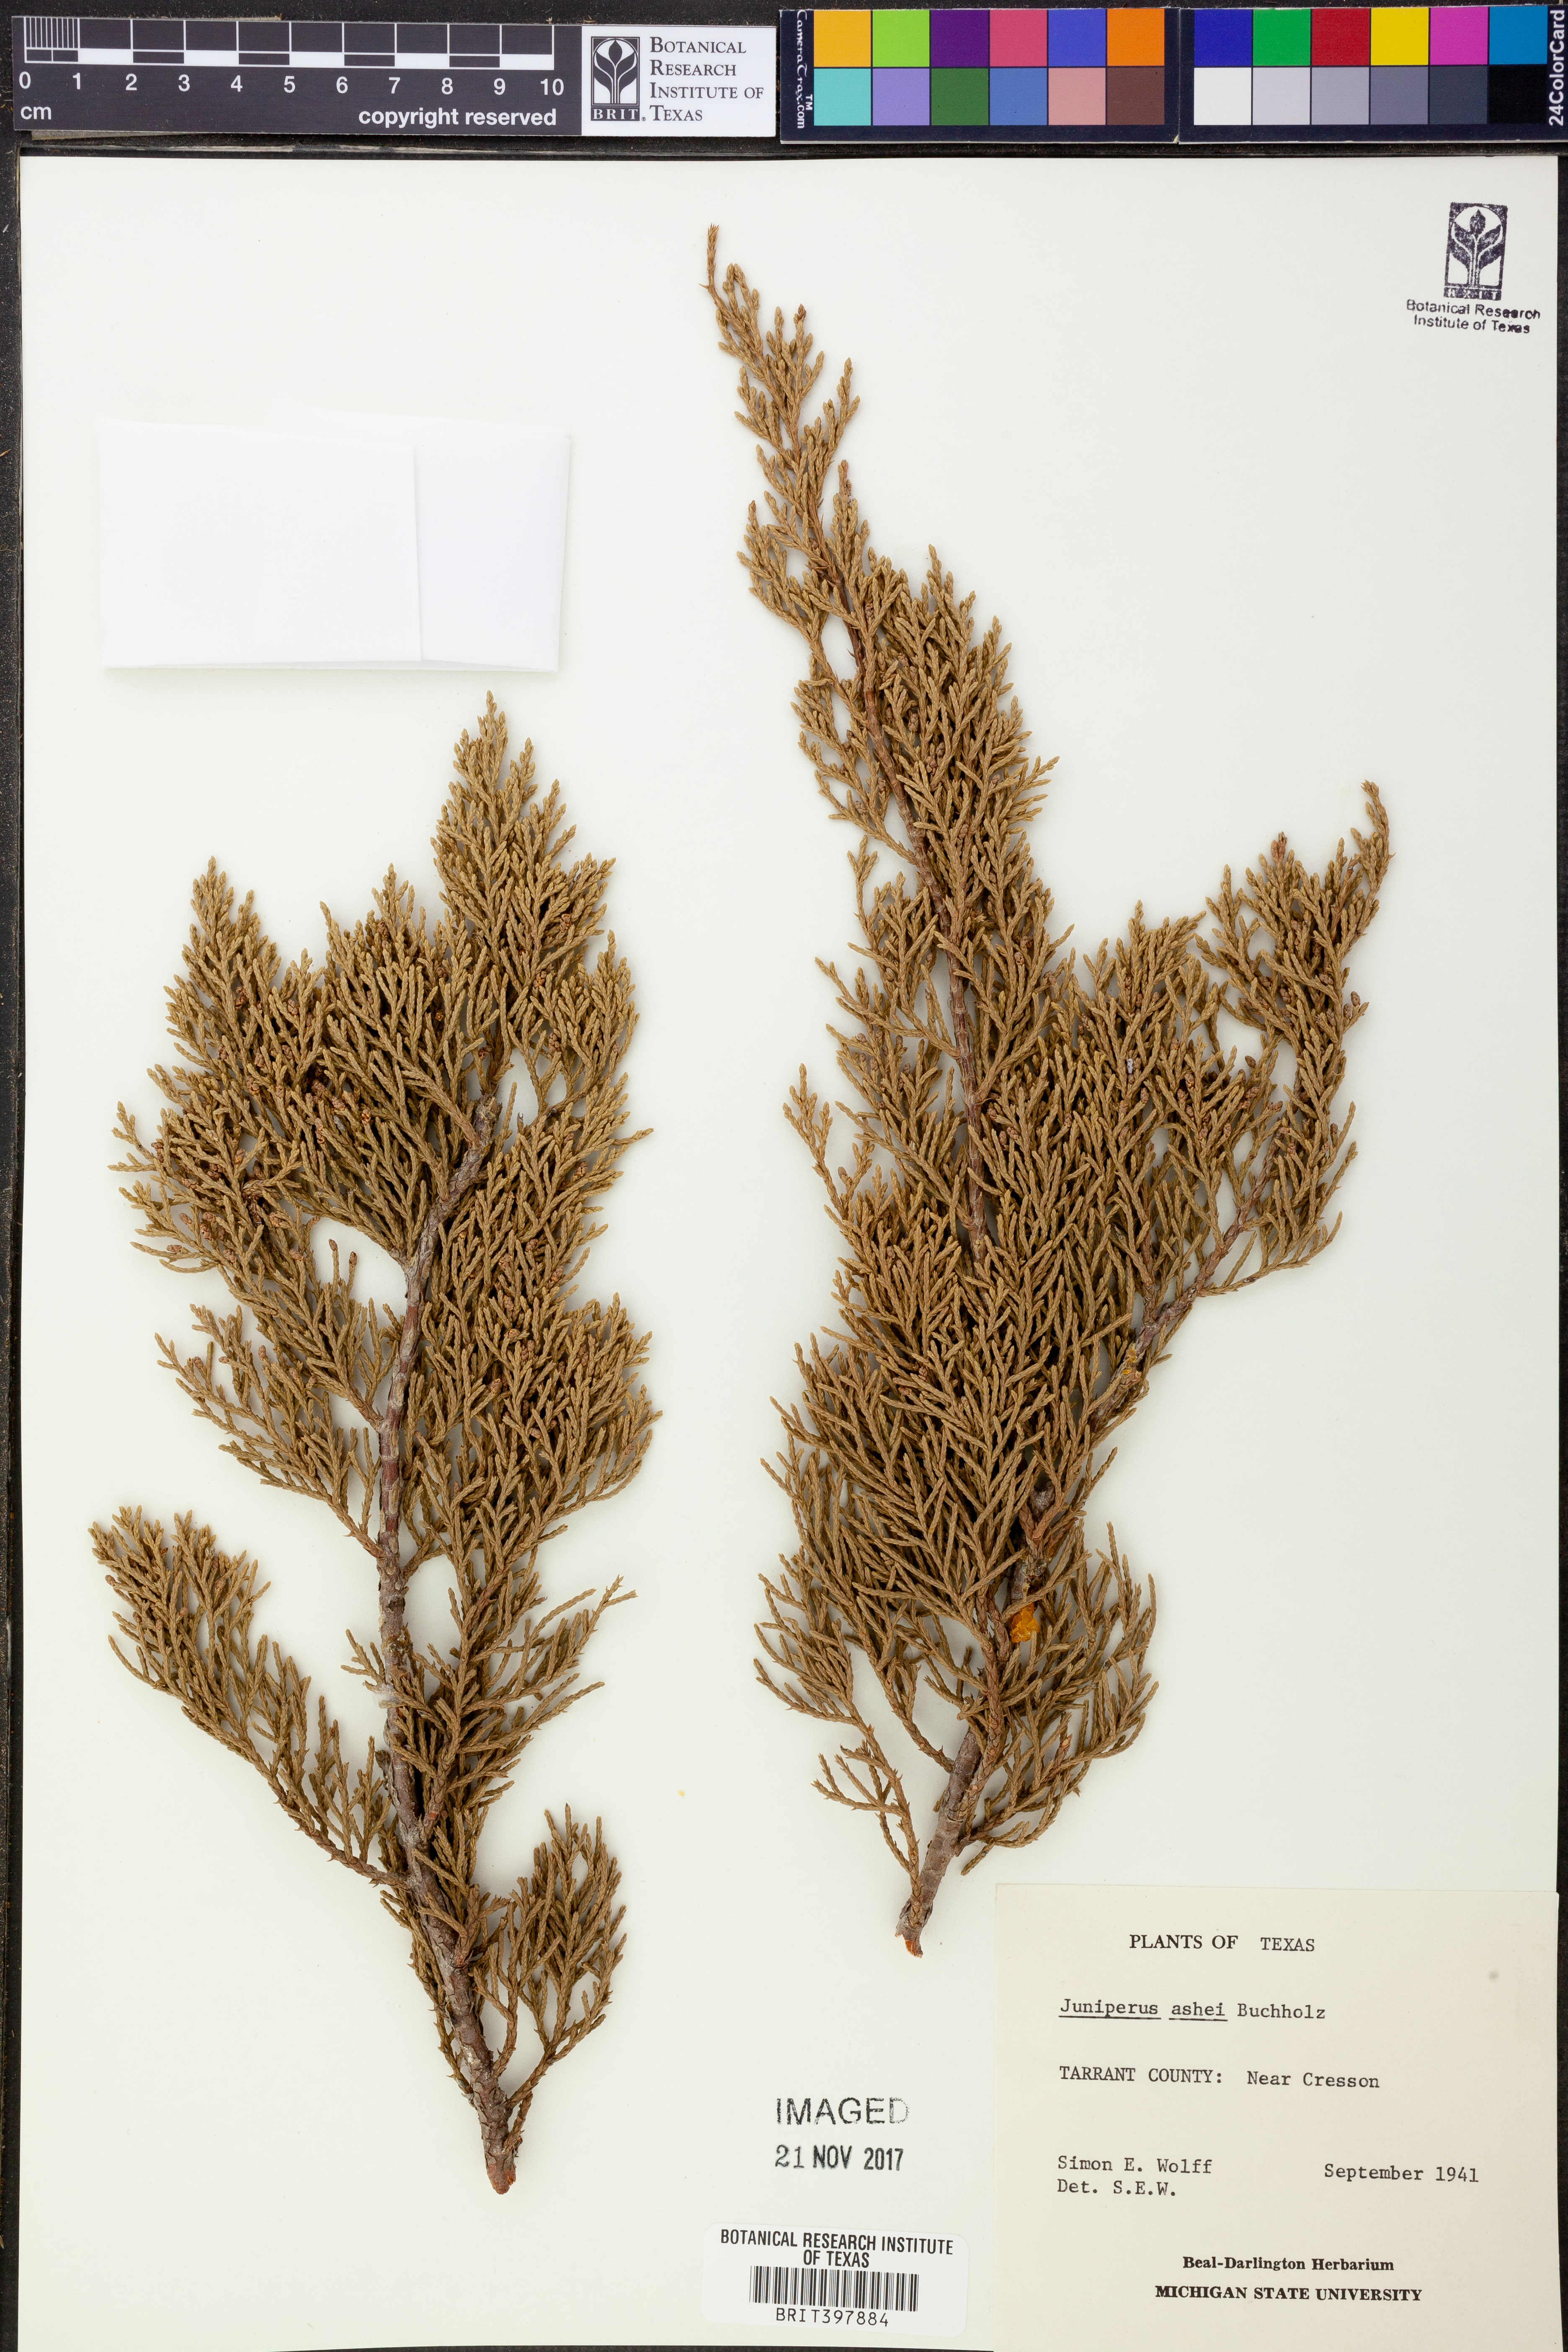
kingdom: Plantae
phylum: Tracheophyta
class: Pinopsida
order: Pinales
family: Cupressaceae
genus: Juniperus
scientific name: Juniperus ashei
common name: Mexican juniper
